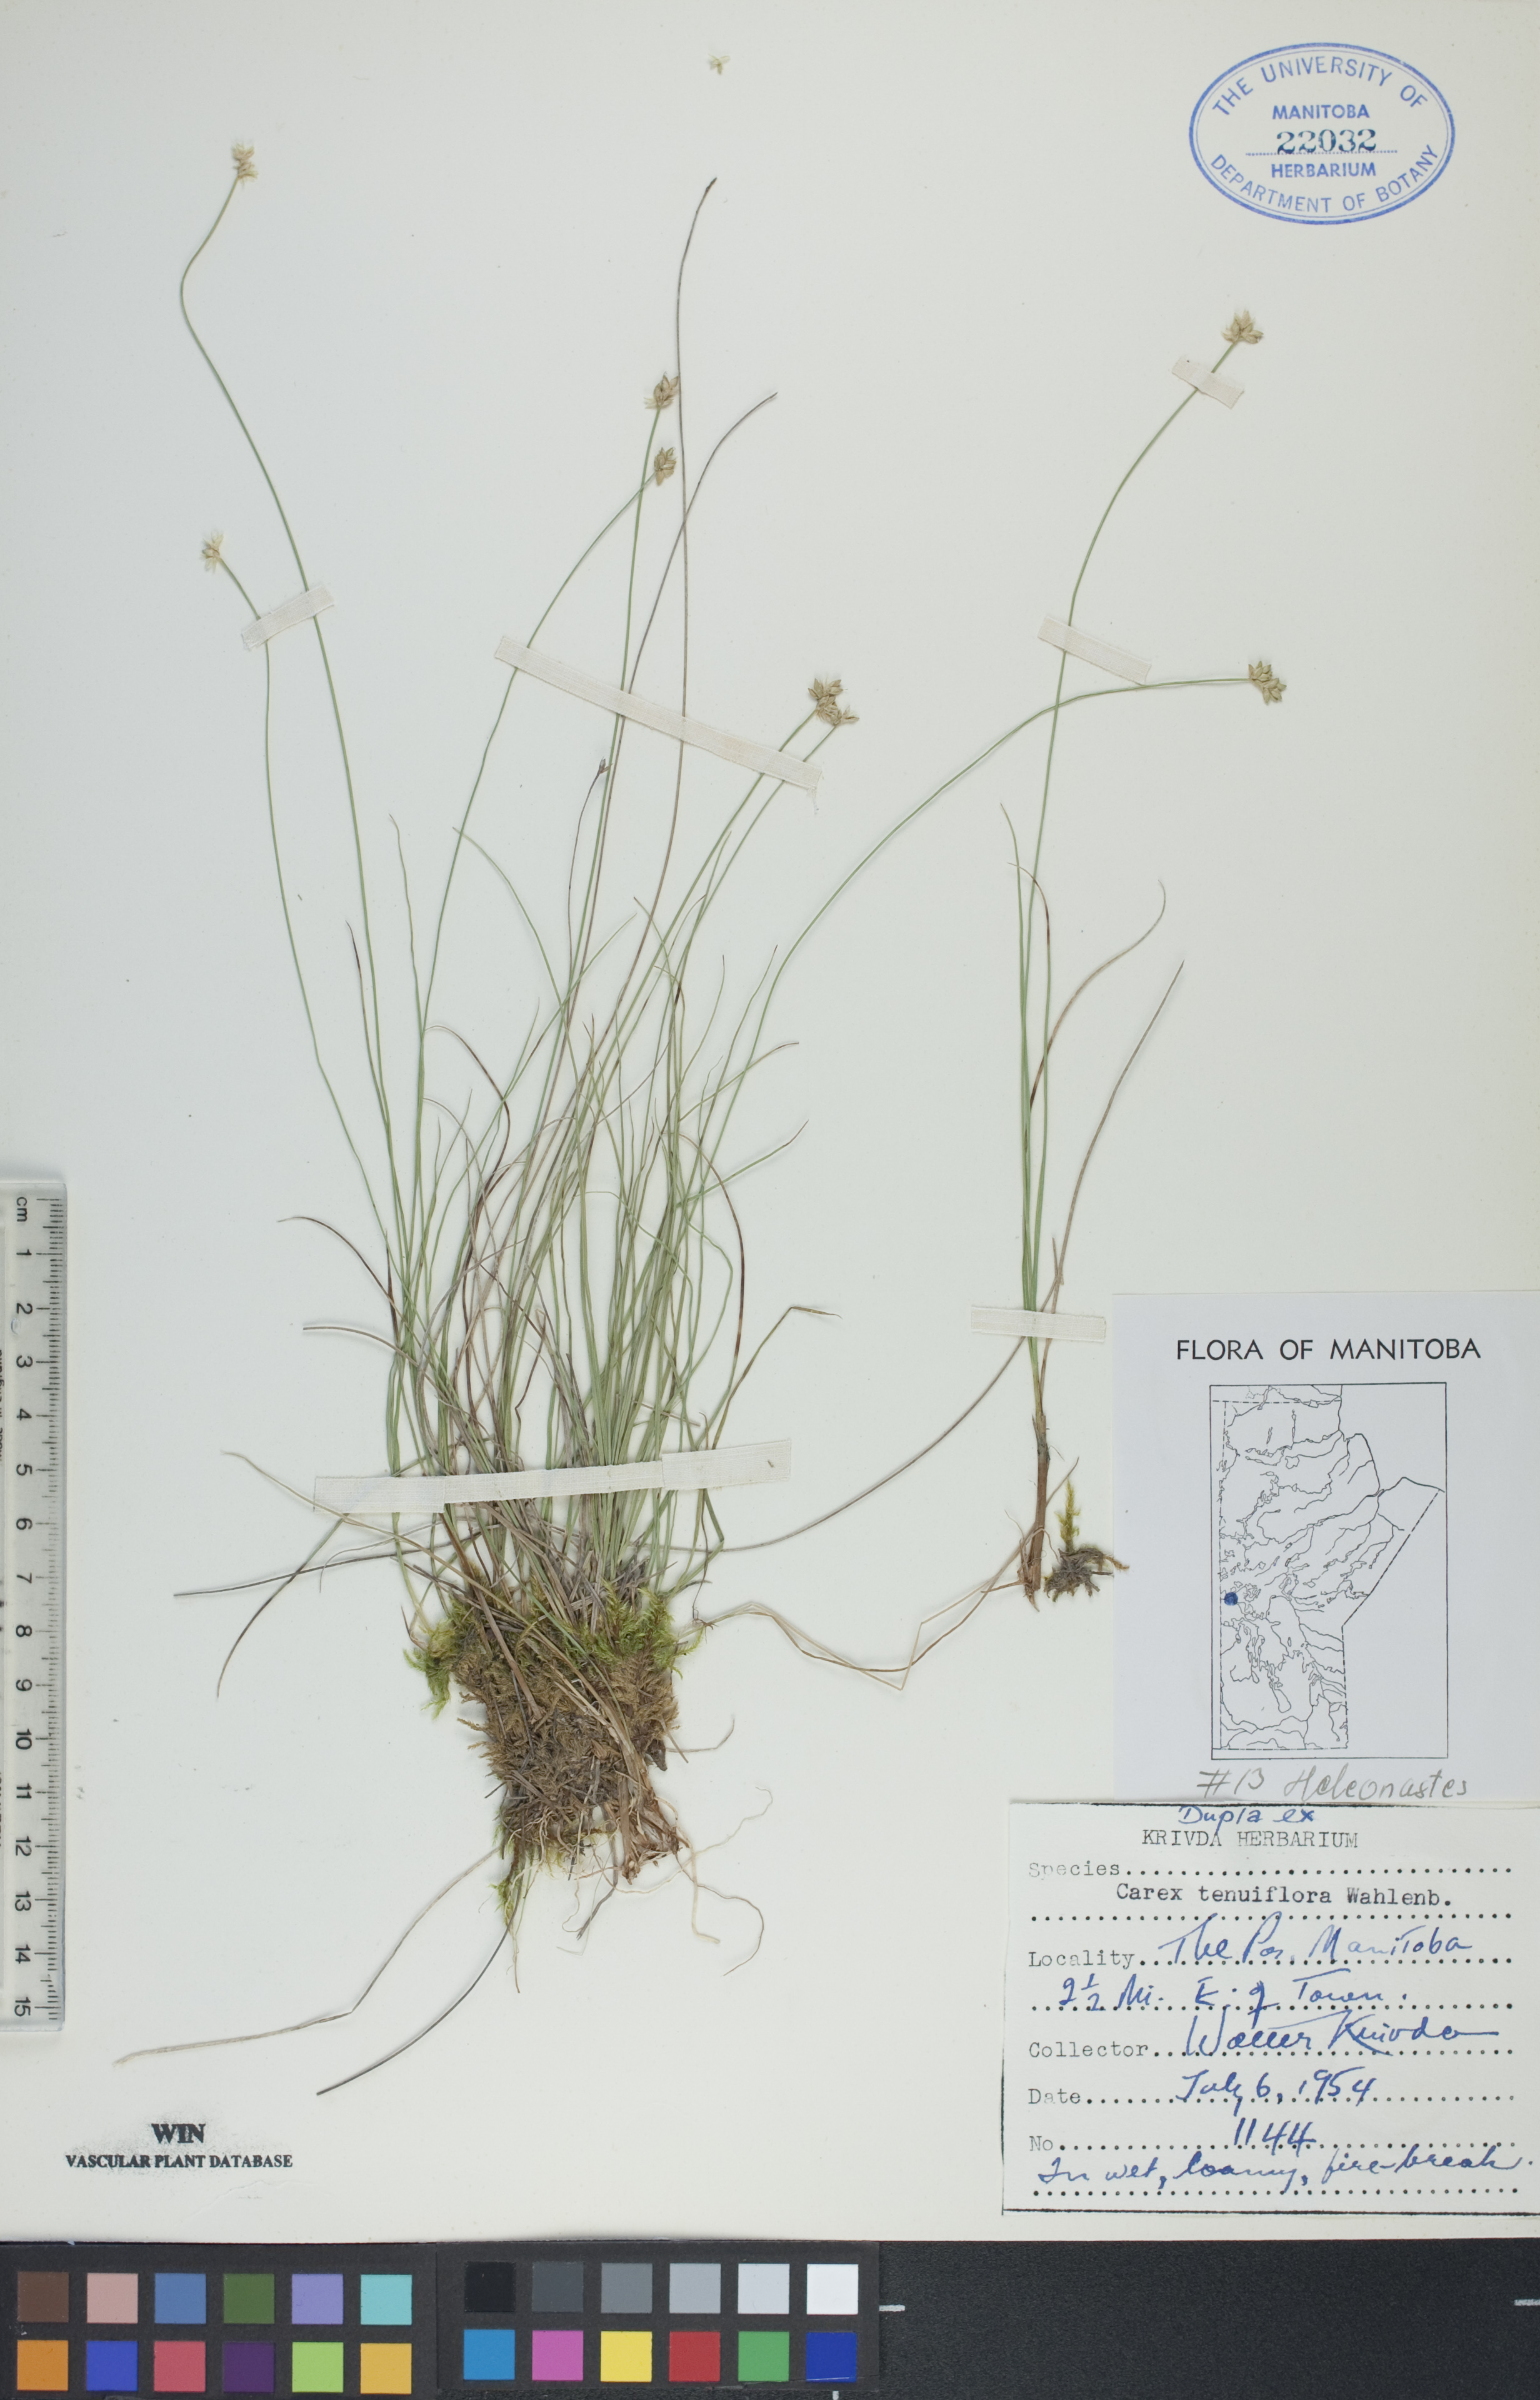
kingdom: Plantae
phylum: Tracheophyta
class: Liliopsida
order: Poales
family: Cyperaceae
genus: Carex
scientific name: Carex tenuiflora
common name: Sparse-flowered sedge
